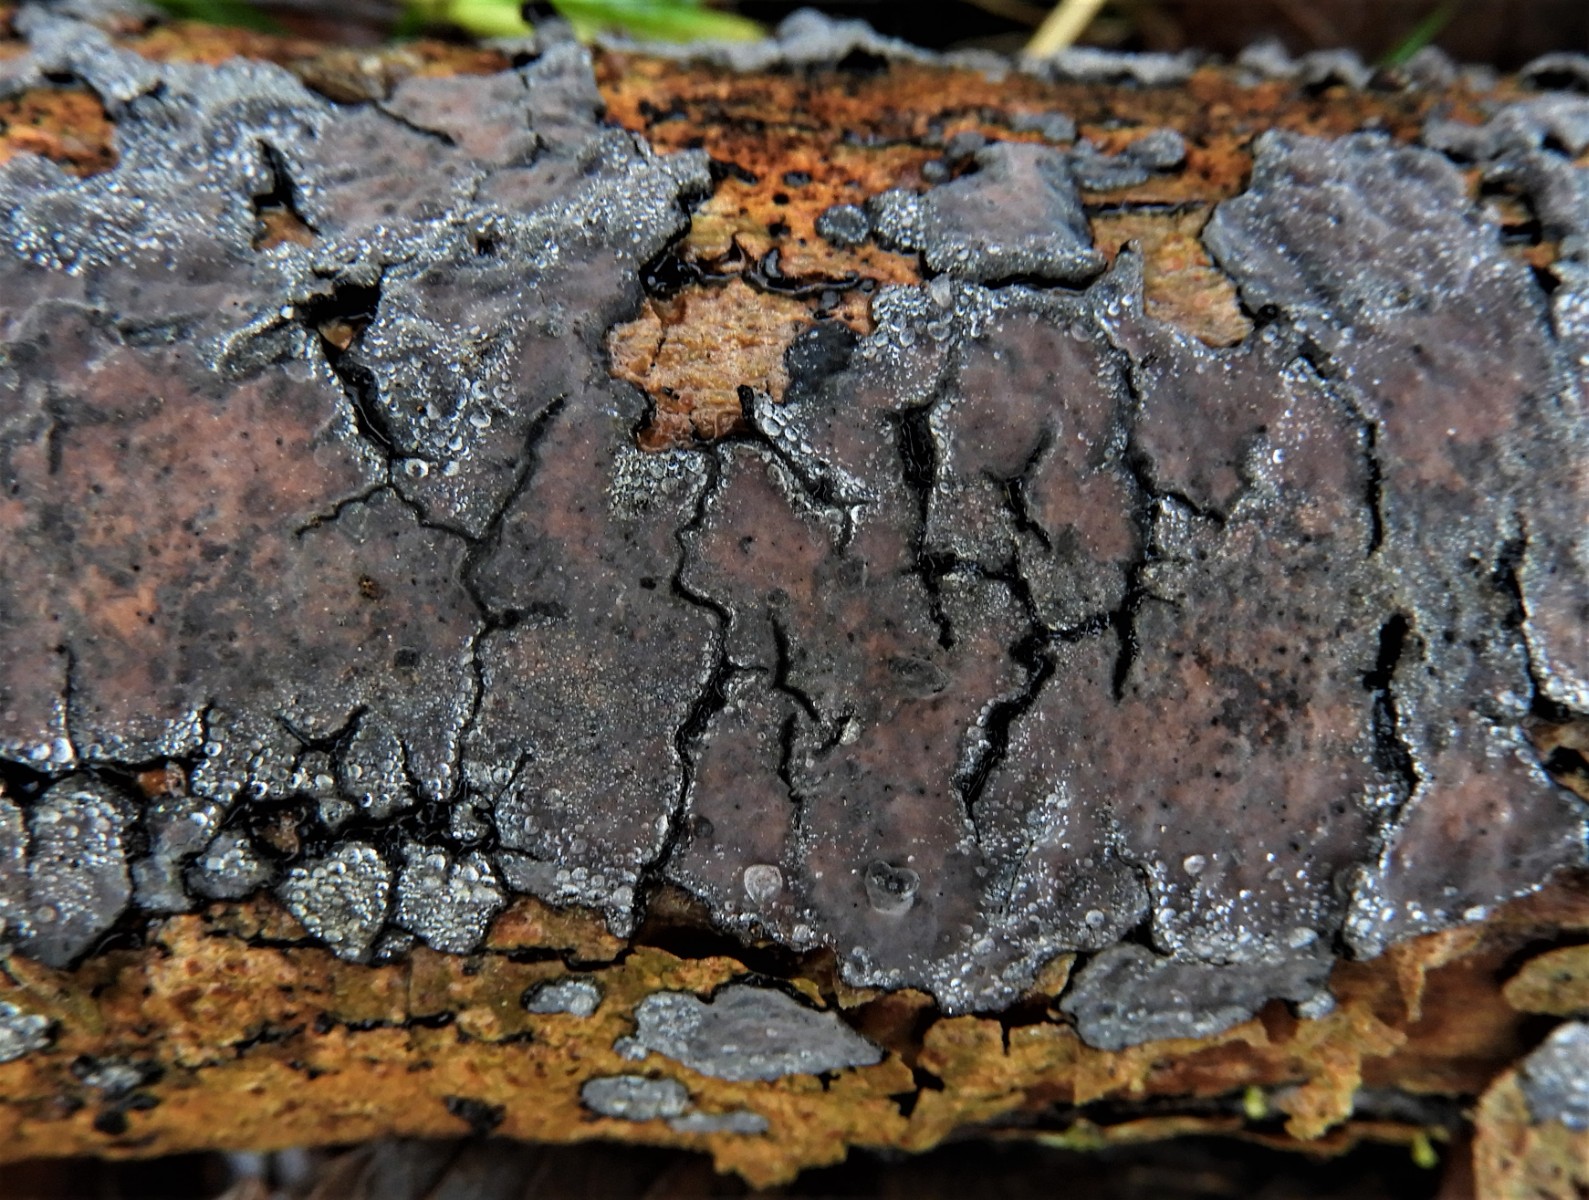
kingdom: Fungi
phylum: Basidiomycota
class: Agaricomycetes
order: Russulales
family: Peniophoraceae
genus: Peniophora
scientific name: Peniophora limitata
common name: mørkrandet voksskind
